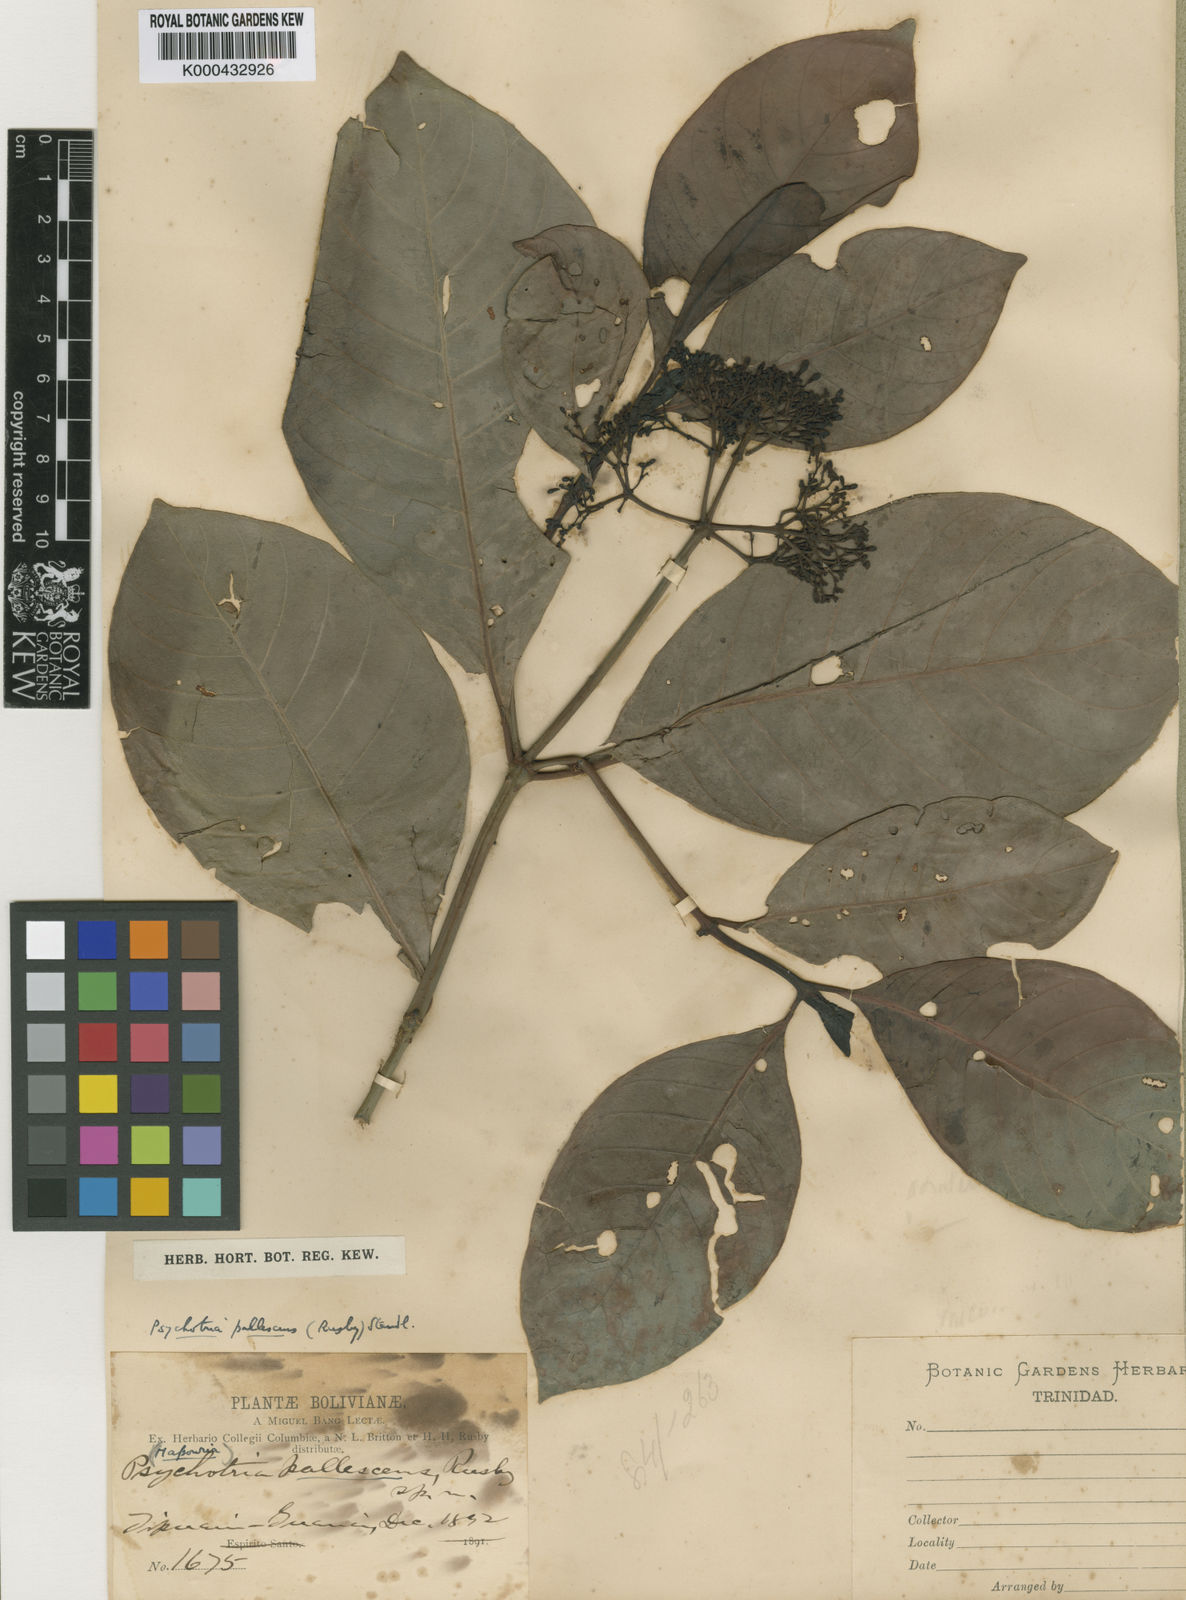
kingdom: Plantae
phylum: Tracheophyta
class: Magnoliopsida
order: Gentianales
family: Rubiaceae
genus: Psychotria
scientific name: Psychotria carthagenensis
